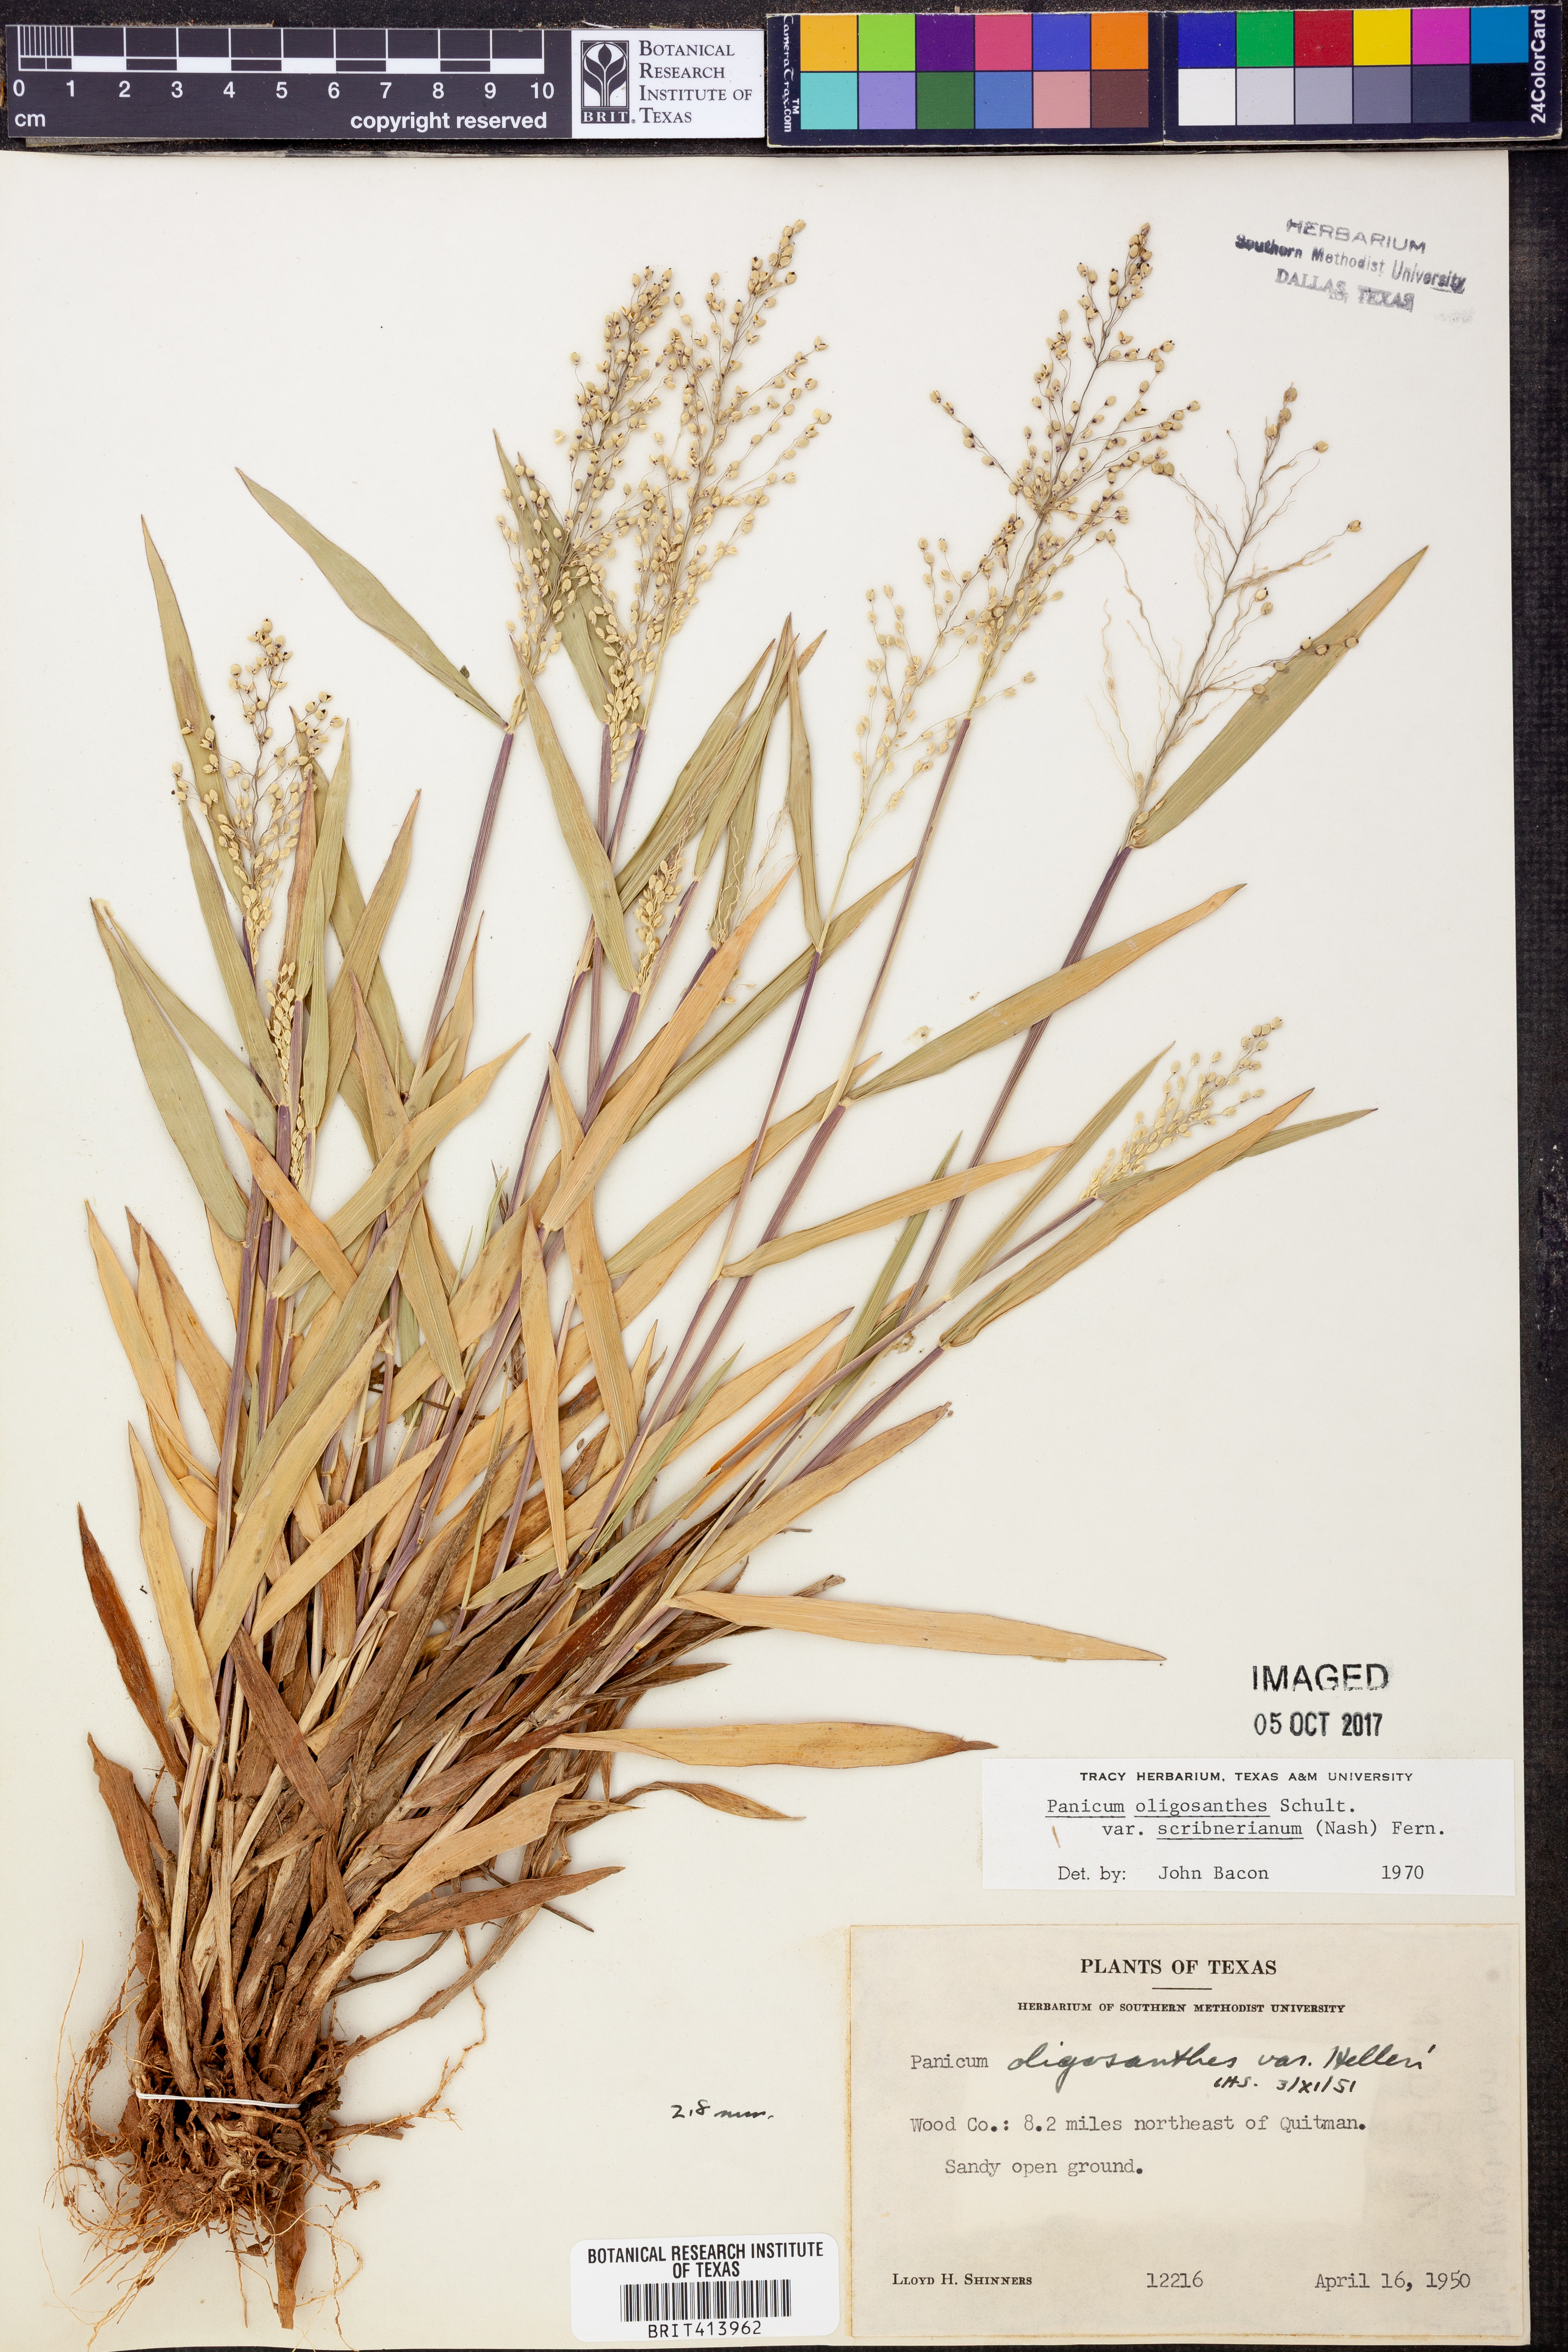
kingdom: Plantae
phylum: Tracheophyta
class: Liliopsida
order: Poales
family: Poaceae
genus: Dichanthelium
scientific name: Dichanthelium scribnerianum
